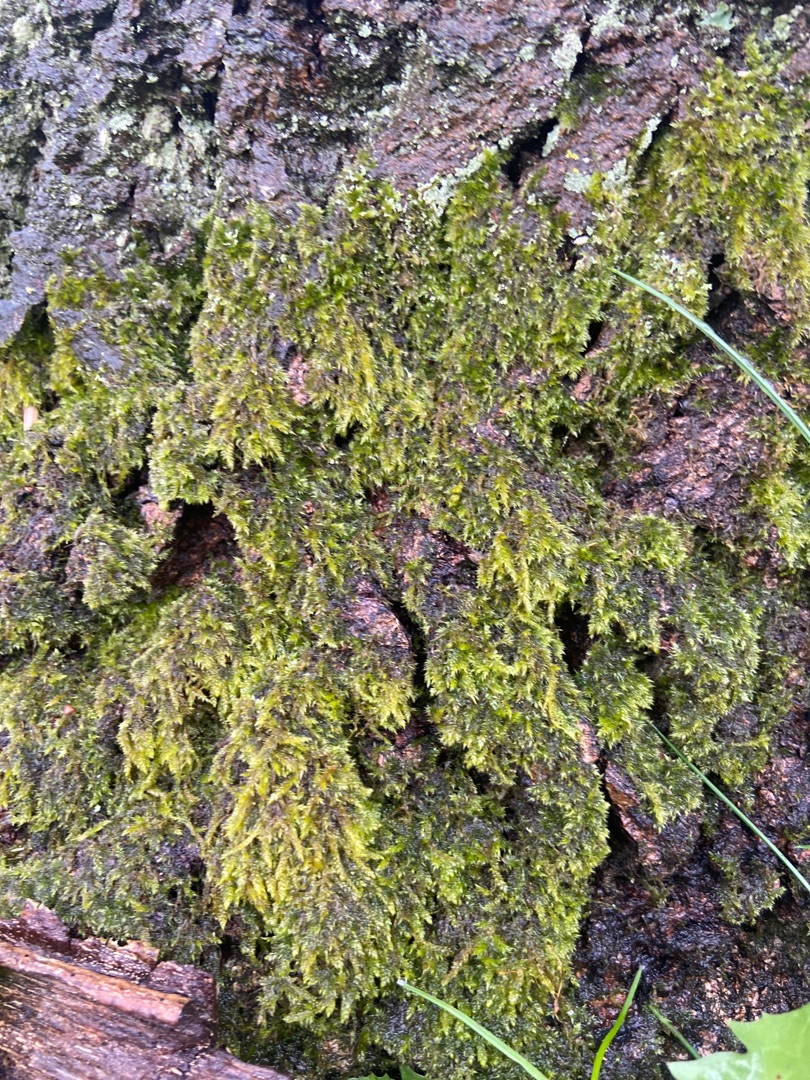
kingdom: Plantae
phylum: Bryophyta
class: Bryopsida
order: Hypnales
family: Hypnaceae
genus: Hypnum
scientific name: Hypnum
